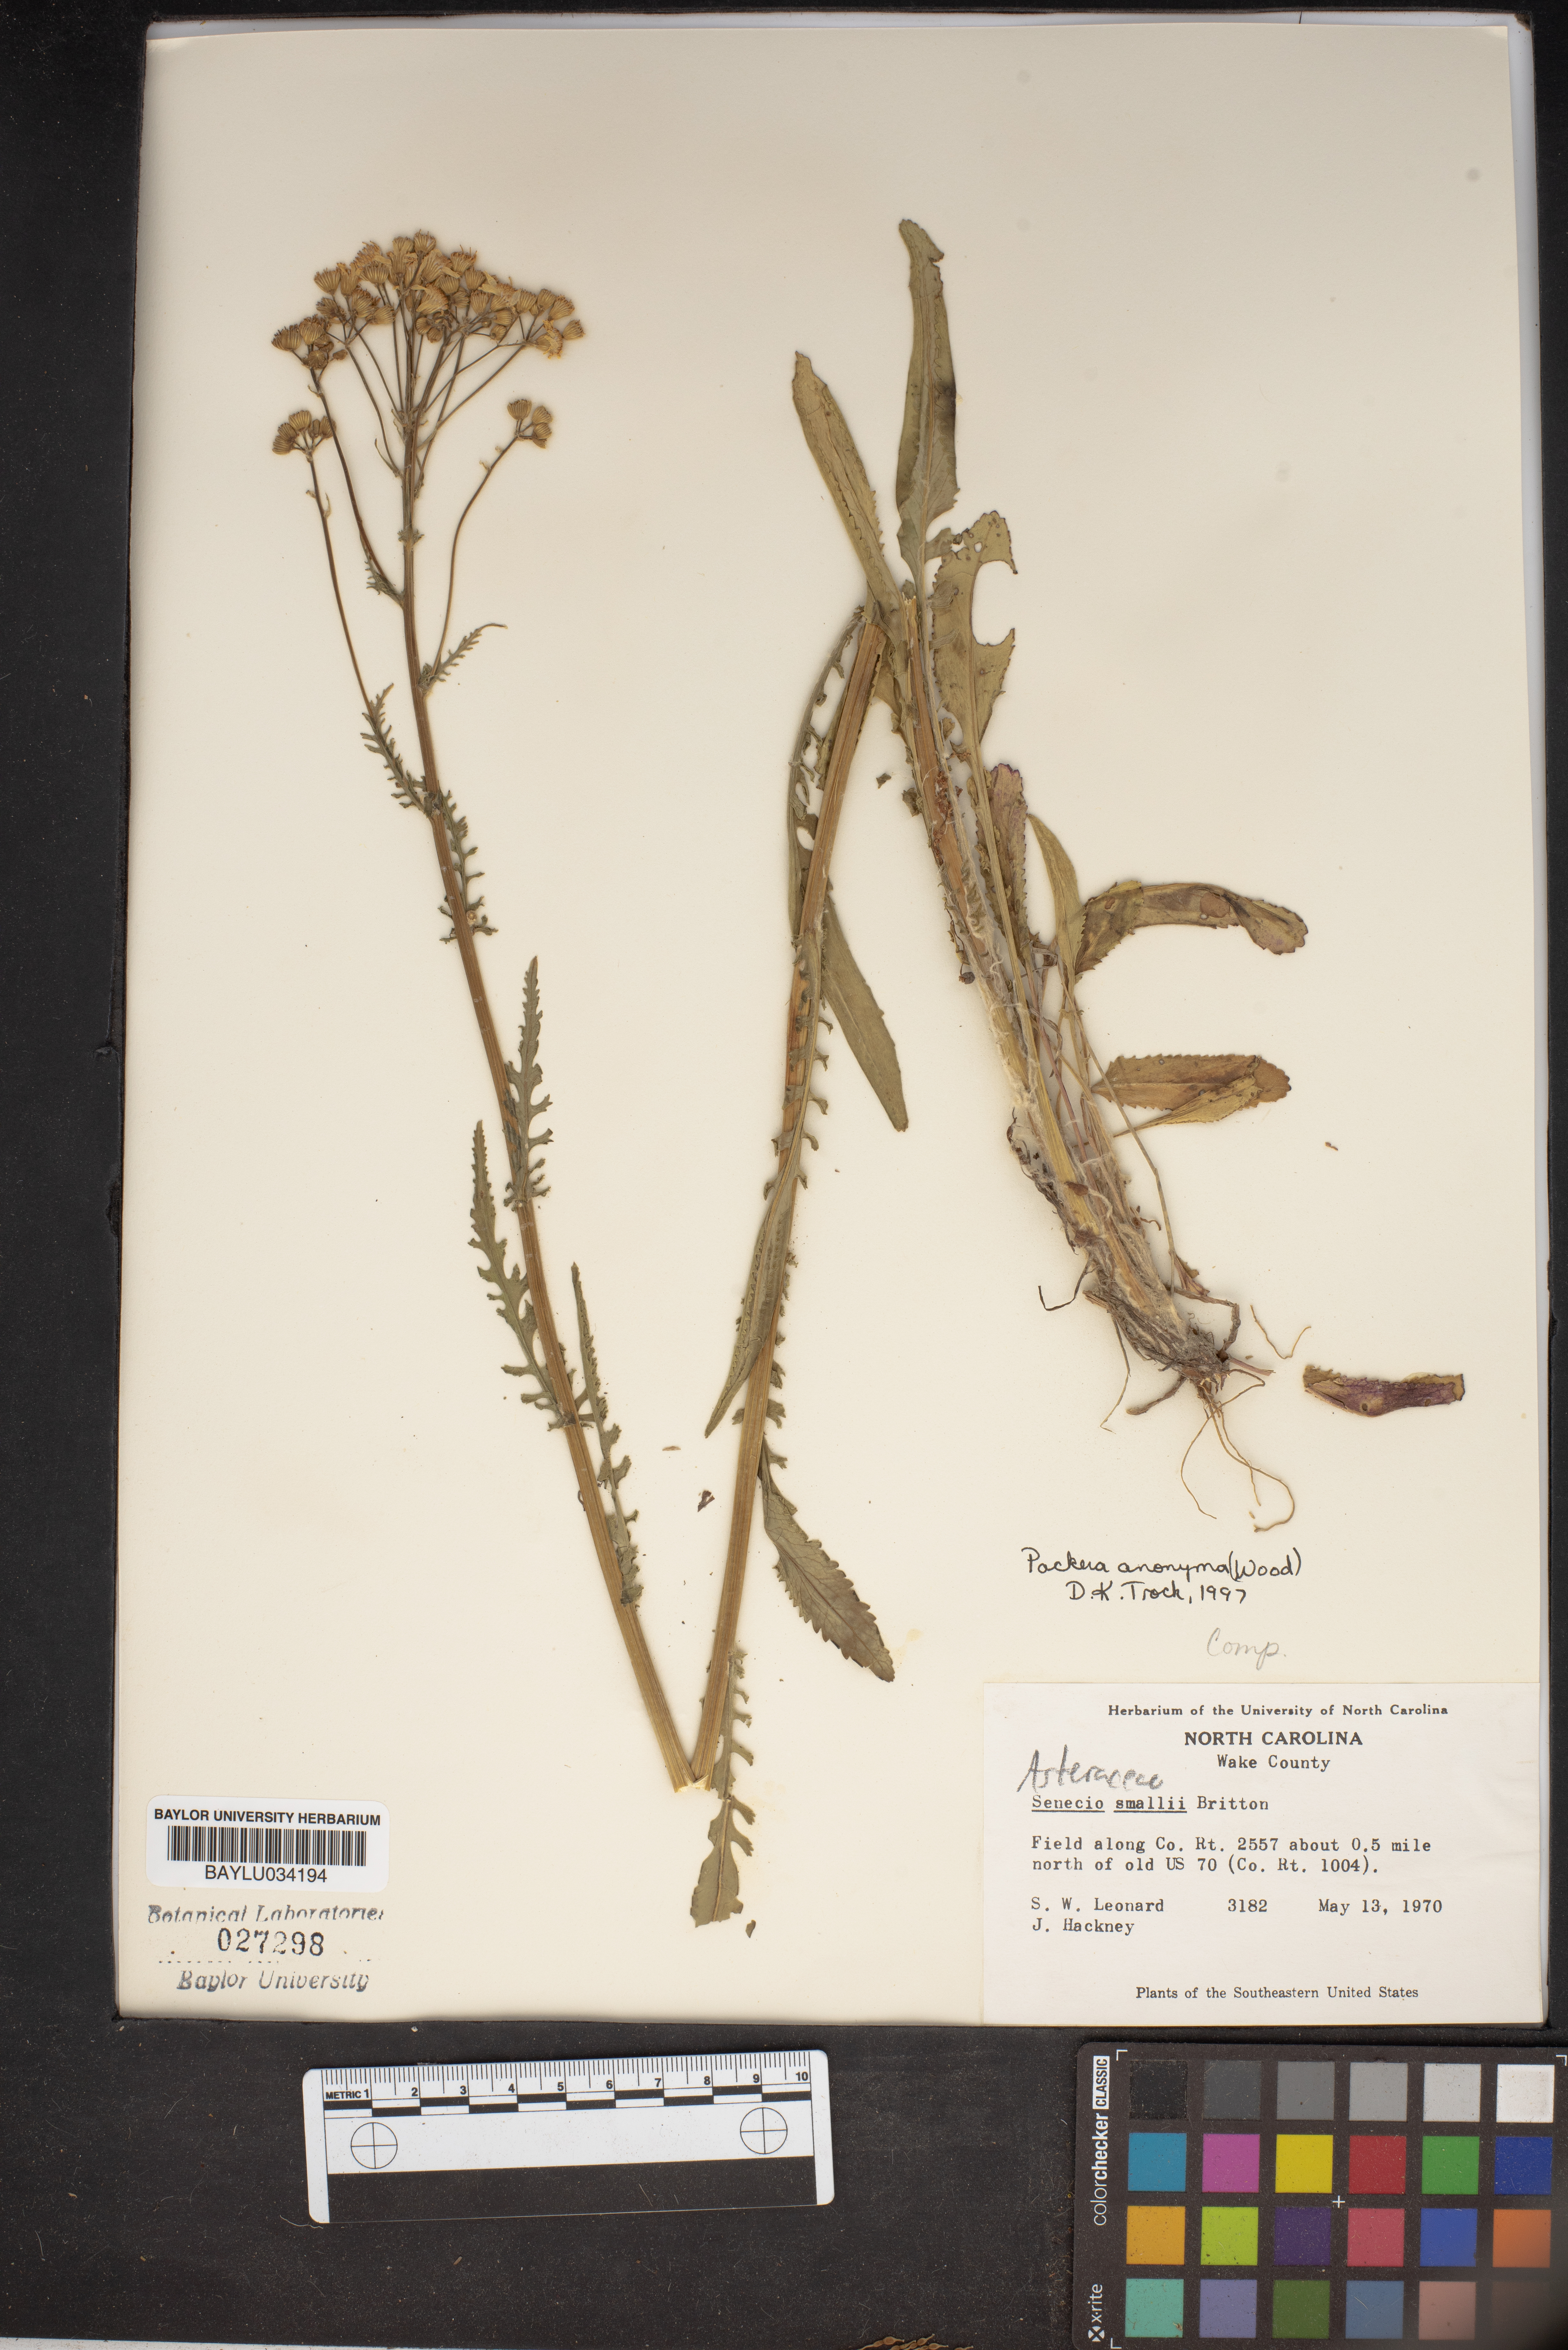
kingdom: Plantae
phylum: Tracheophyta
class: Magnoliopsida
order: Asterales
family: Asteraceae
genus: Packera
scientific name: Packera anonyma
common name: Small ragwort
